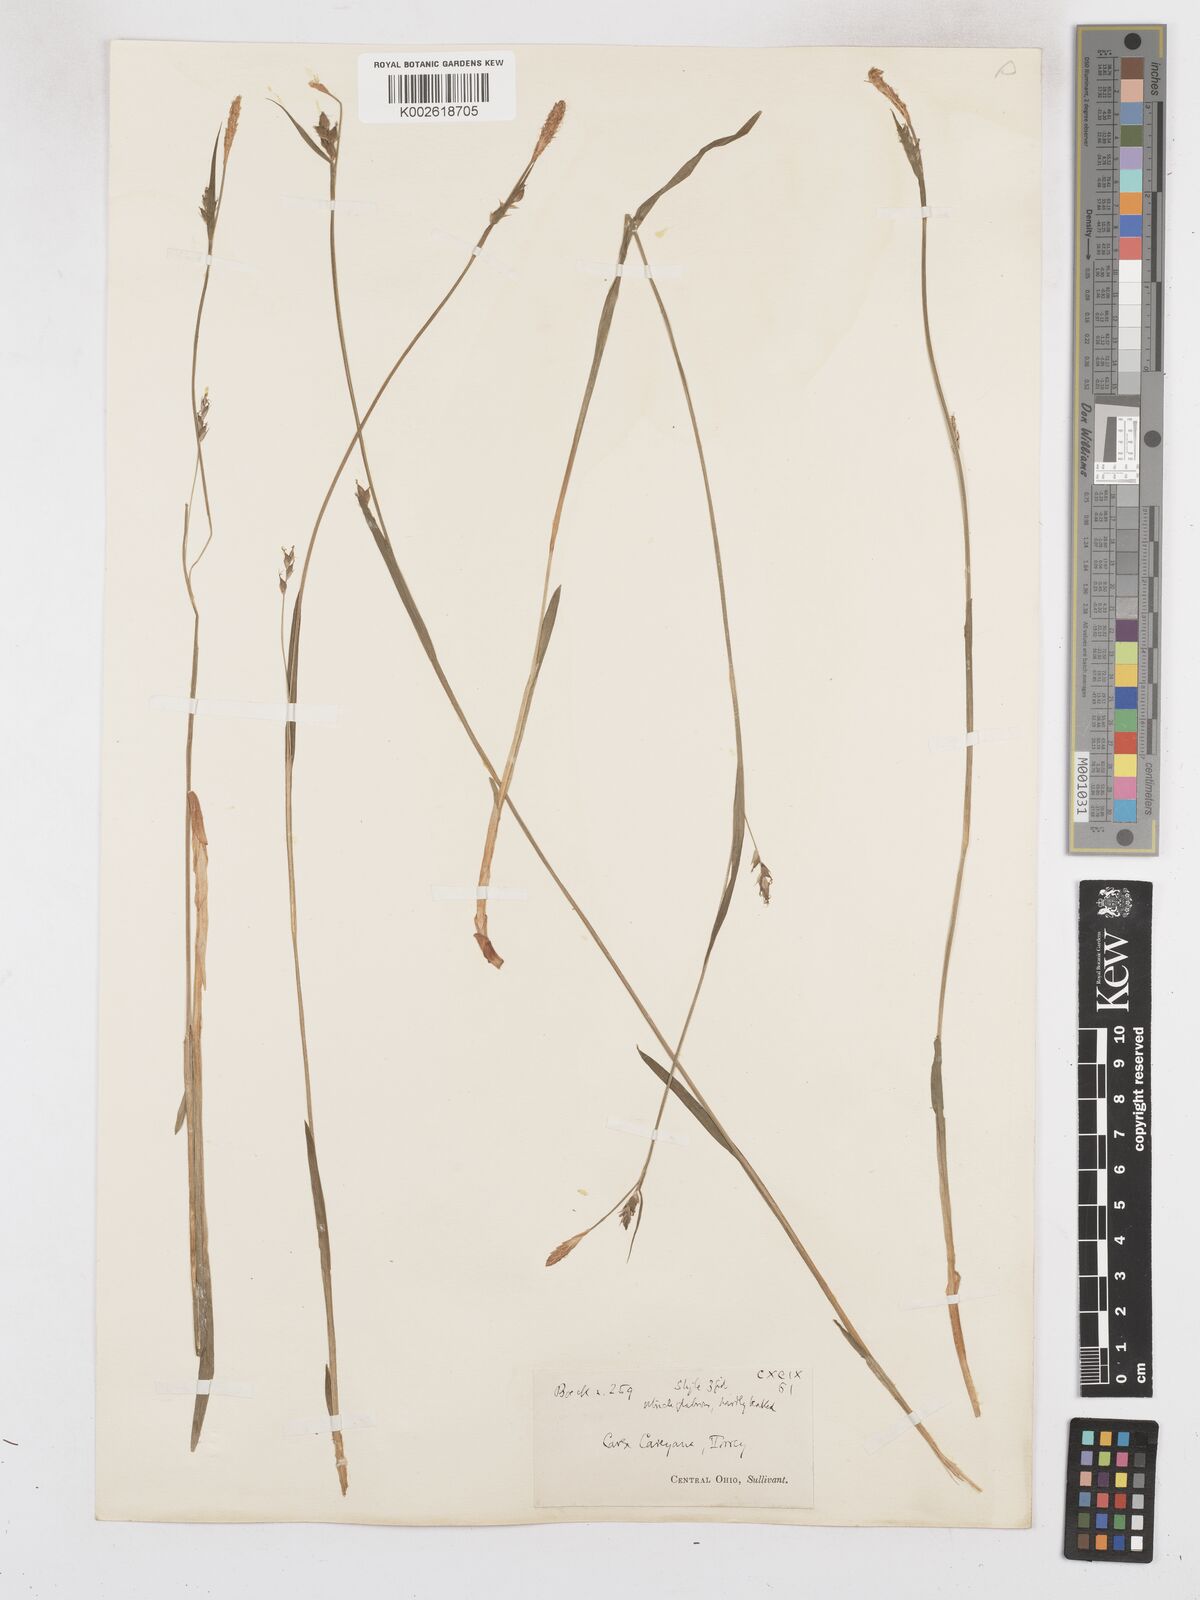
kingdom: Plantae
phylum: Tracheophyta
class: Liliopsida
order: Poales
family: Cyperaceae
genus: Carex
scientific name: Carex careyana
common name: Carey's sedge
